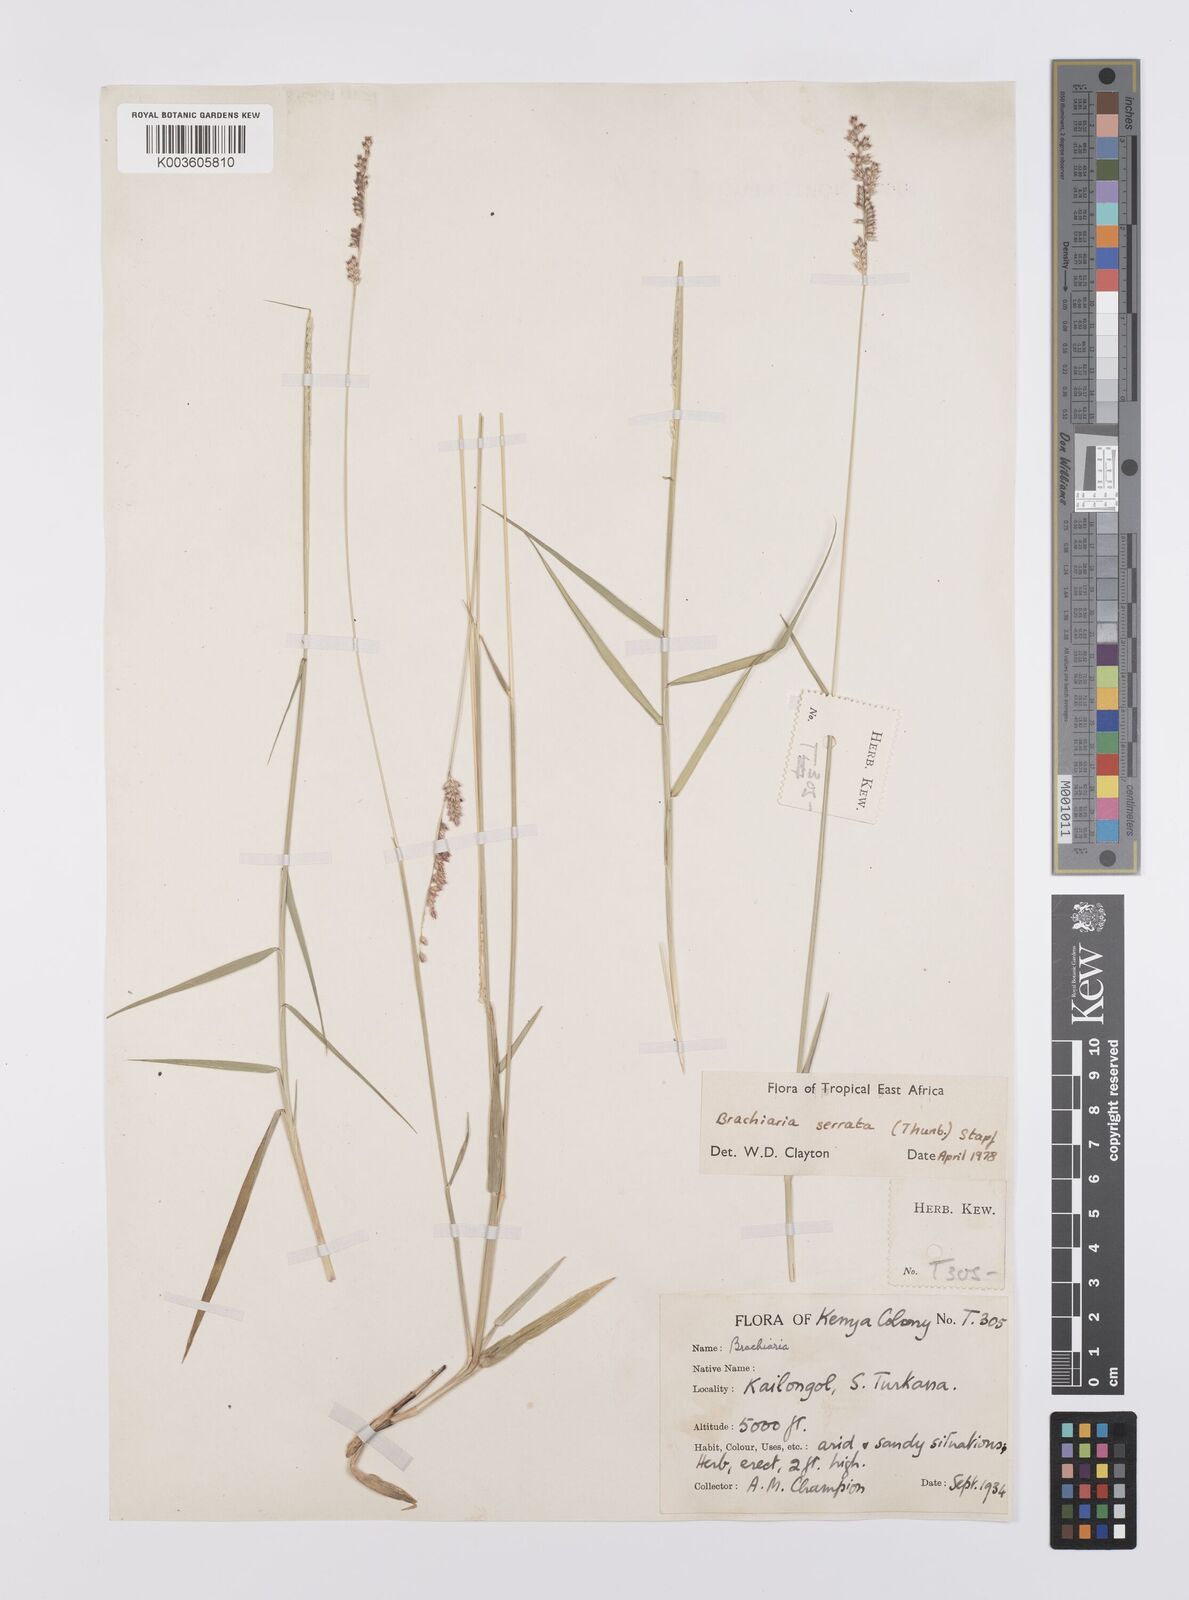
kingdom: Plantae
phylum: Tracheophyta
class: Liliopsida
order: Poales
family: Poaceae
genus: Urochloa
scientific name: Urochloa serrata
